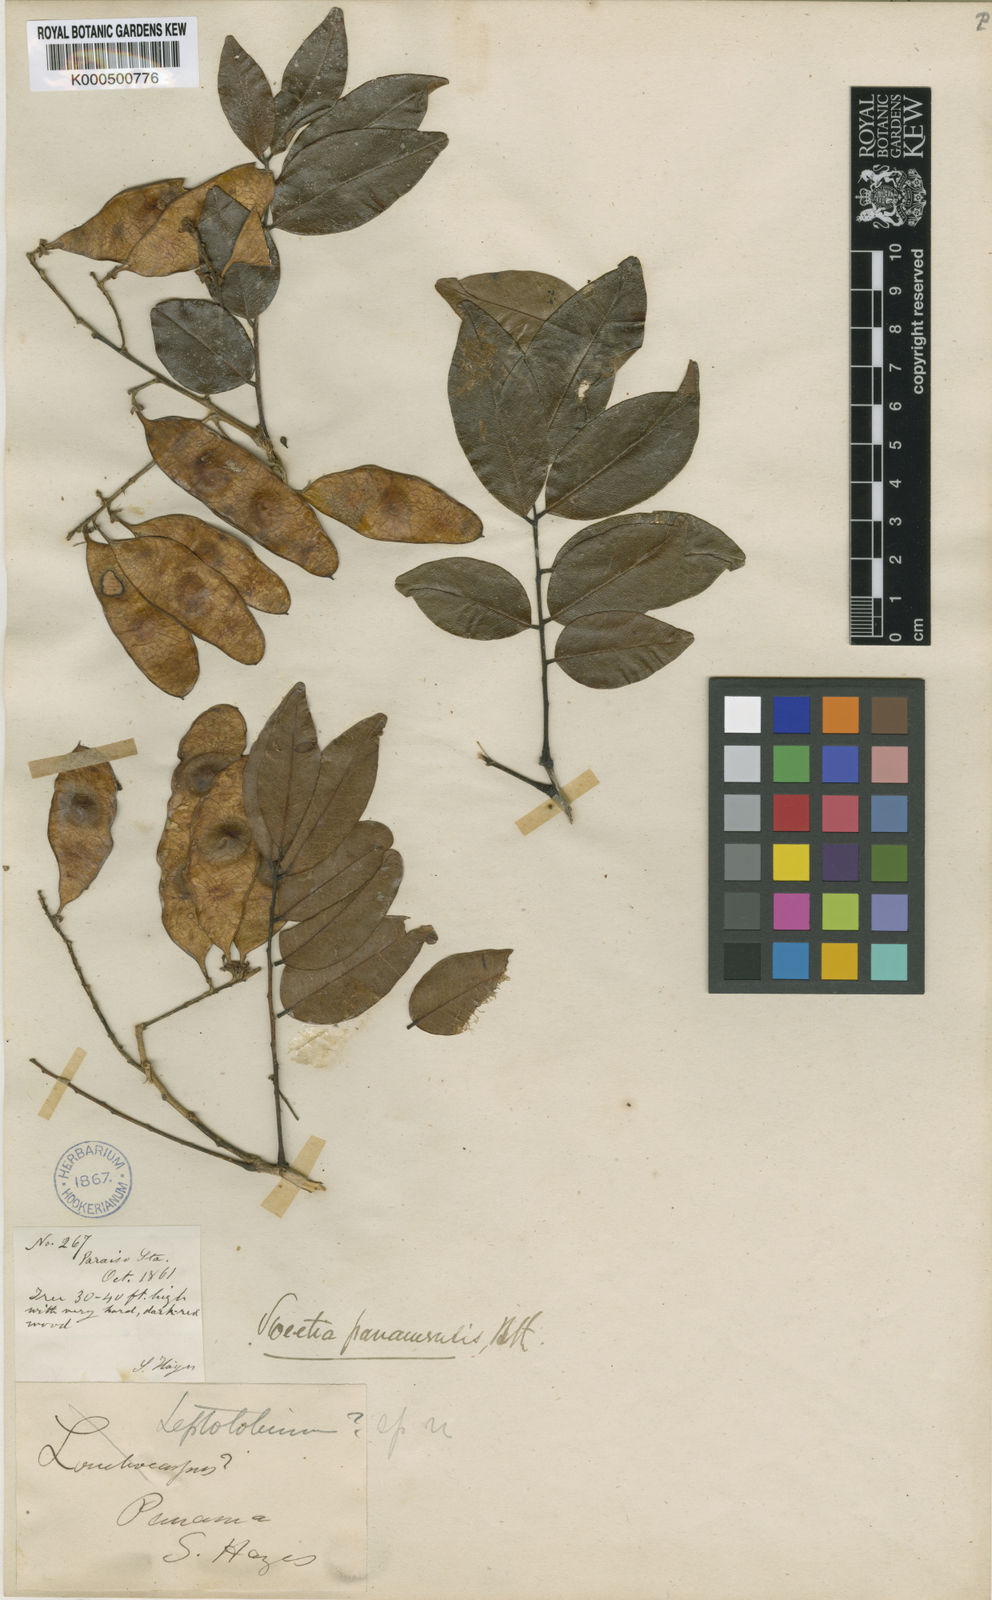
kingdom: Plantae
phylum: Tracheophyta
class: Magnoliopsida
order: Fabales
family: Fabaceae
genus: Leptolobium
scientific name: Leptolobium panamense
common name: Billy webb
